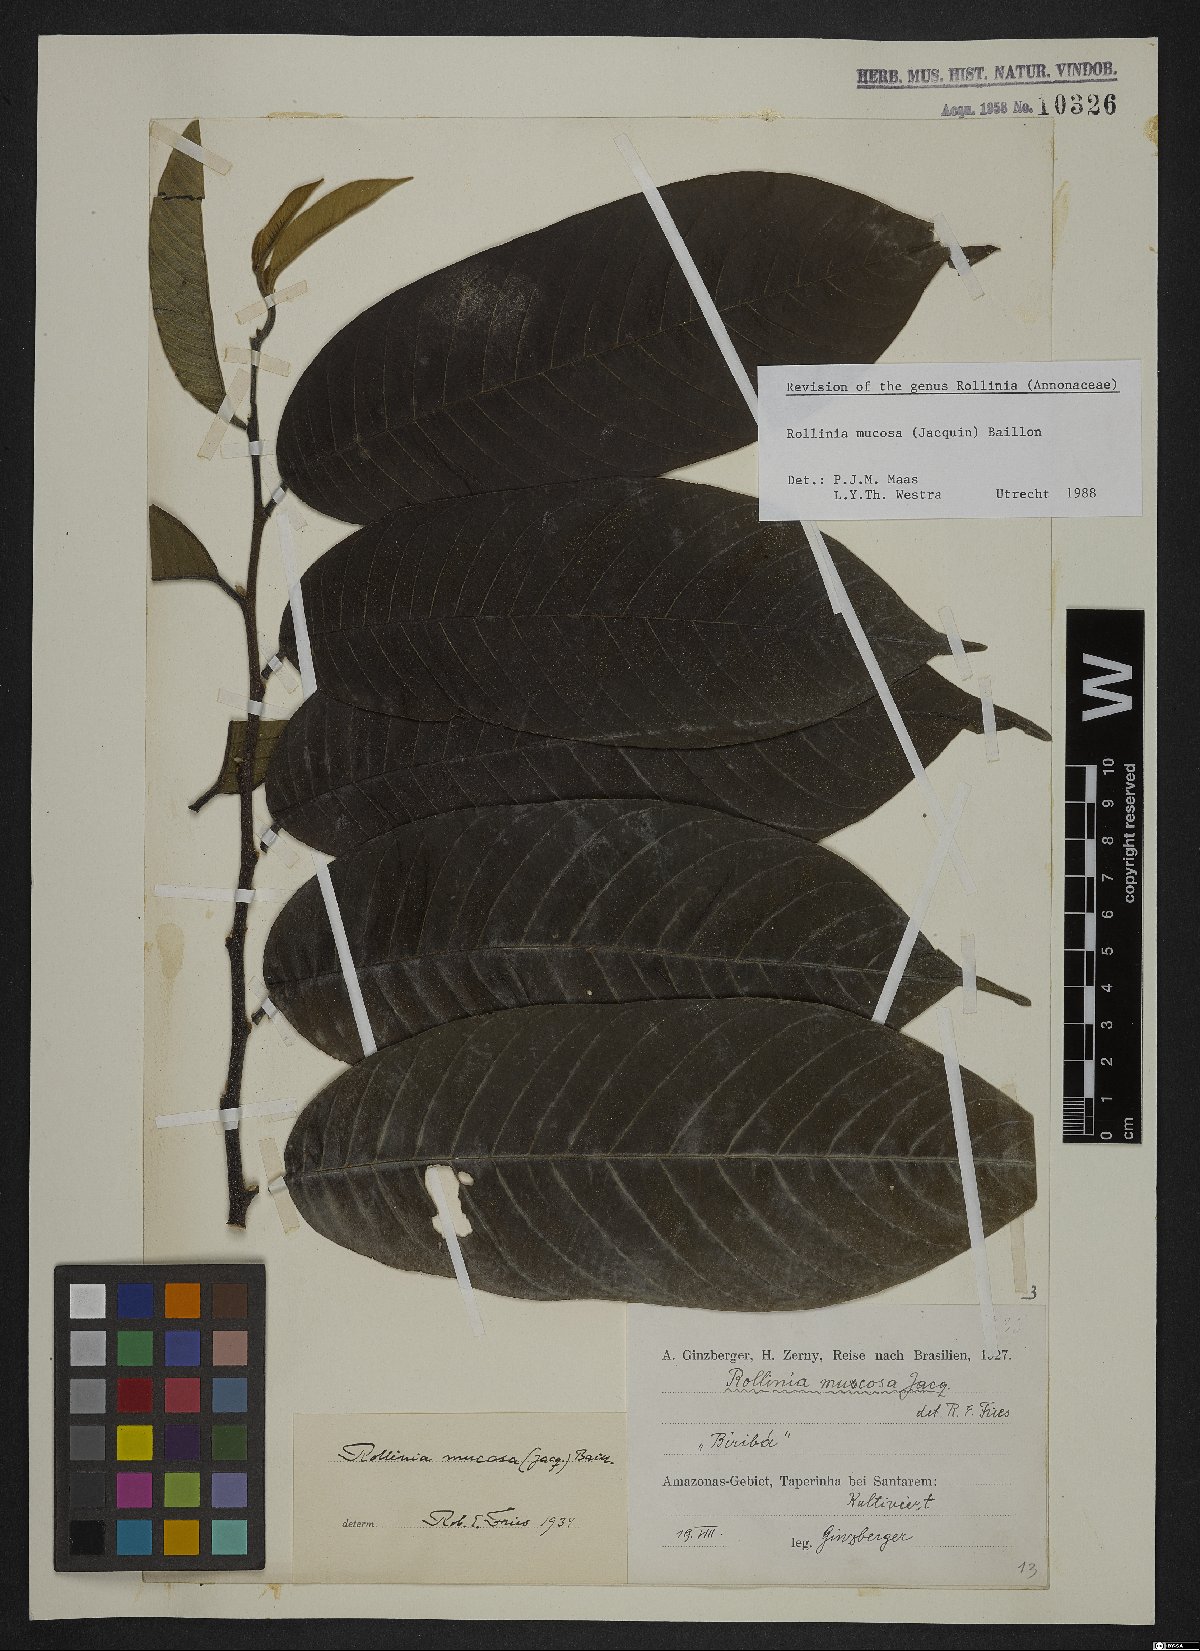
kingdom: Plantae
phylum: Tracheophyta
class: Magnoliopsida
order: Magnoliales
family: Annonaceae
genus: Annona
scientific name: Annona mucosa
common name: Sugar apple
